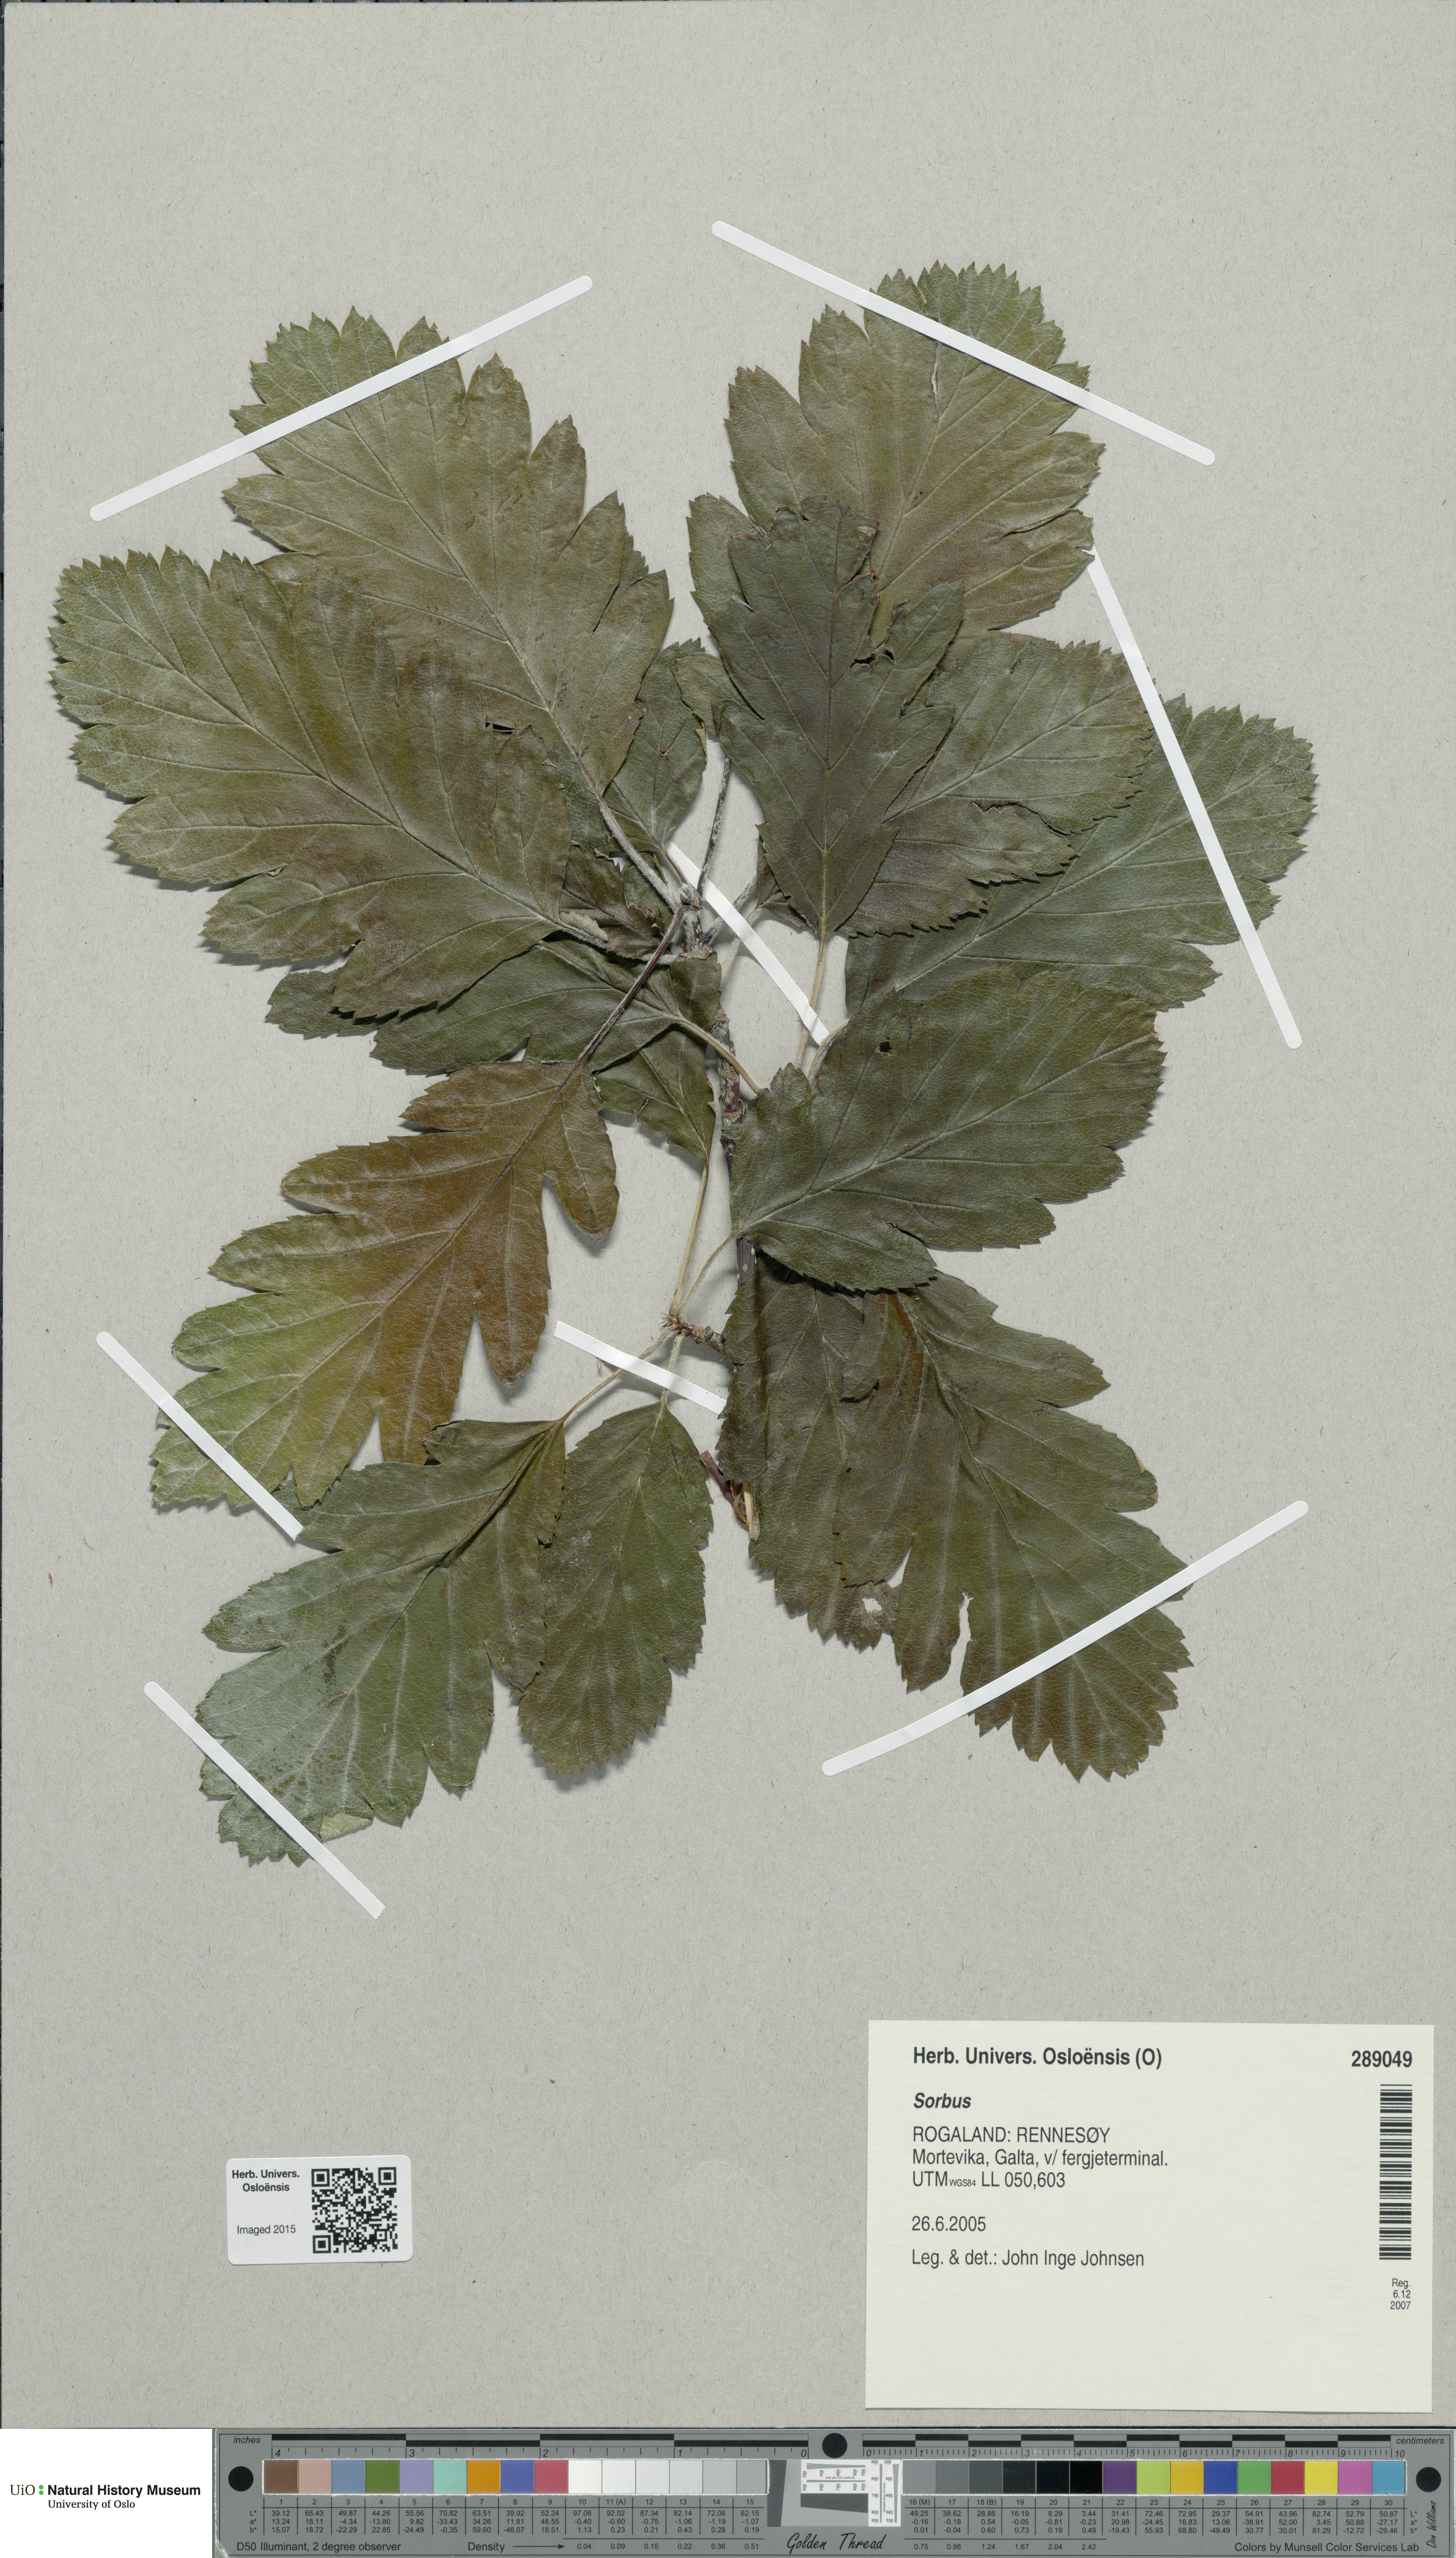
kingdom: Plantae
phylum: Tracheophyta
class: Magnoliopsida
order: Rosales
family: Rosaceae
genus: Sorbus
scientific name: Sorbus
